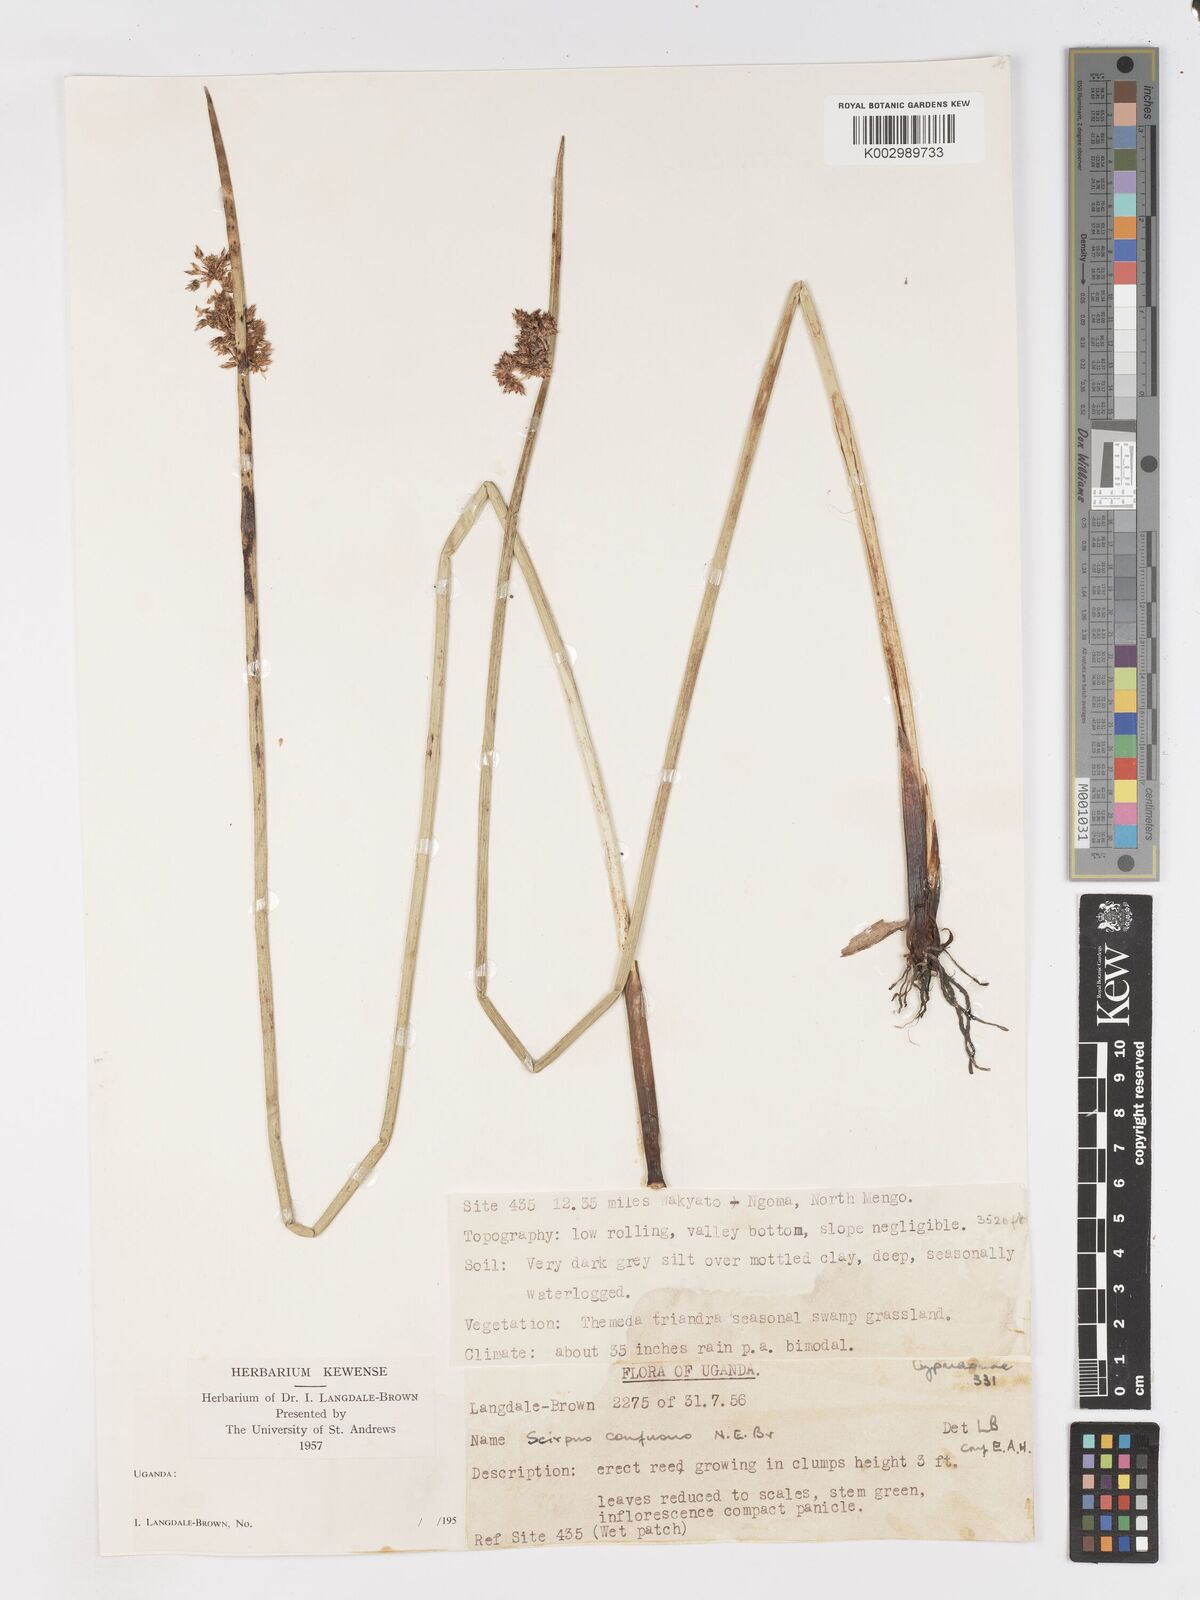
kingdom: Plantae
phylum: Tracheophyta
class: Liliopsida
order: Poales
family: Cyperaceae
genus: Schoenoplectiella
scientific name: Schoenoplectiella confusa
